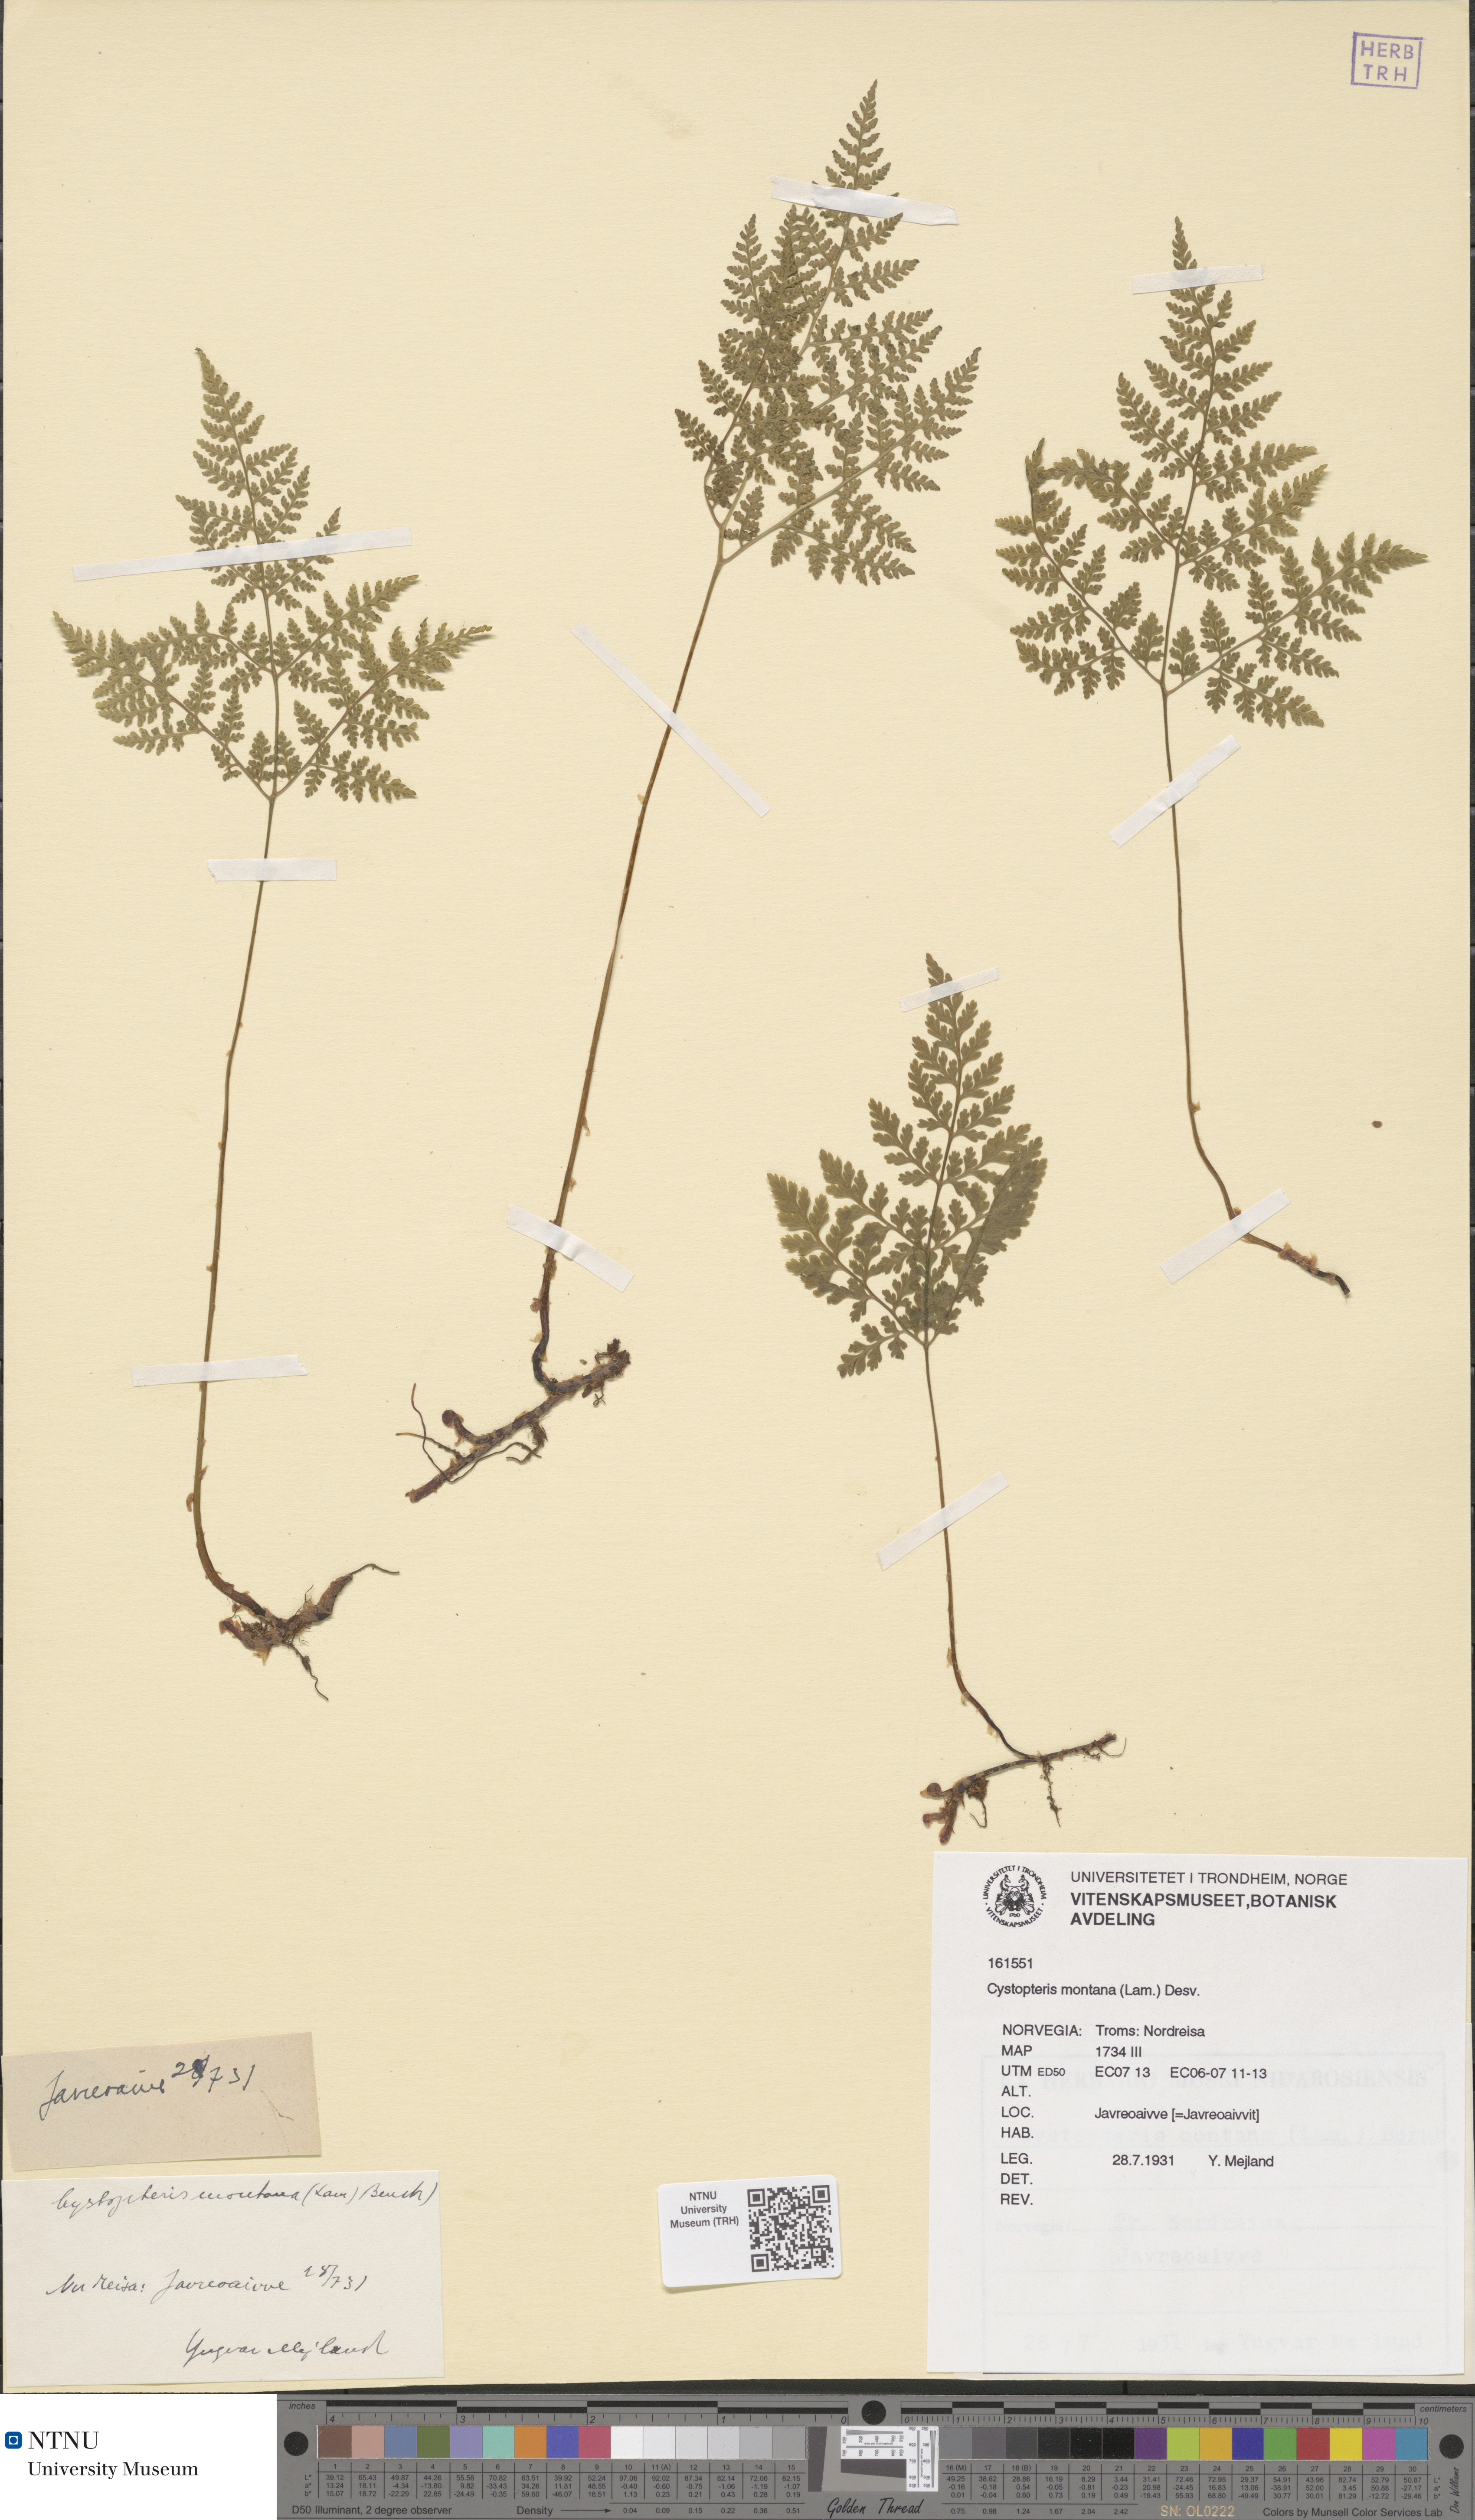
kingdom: Plantae
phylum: Tracheophyta
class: Polypodiopsida
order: Polypodiales
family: Cystopteridaceae
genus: Cystopteris
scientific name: Cystopteris montana
